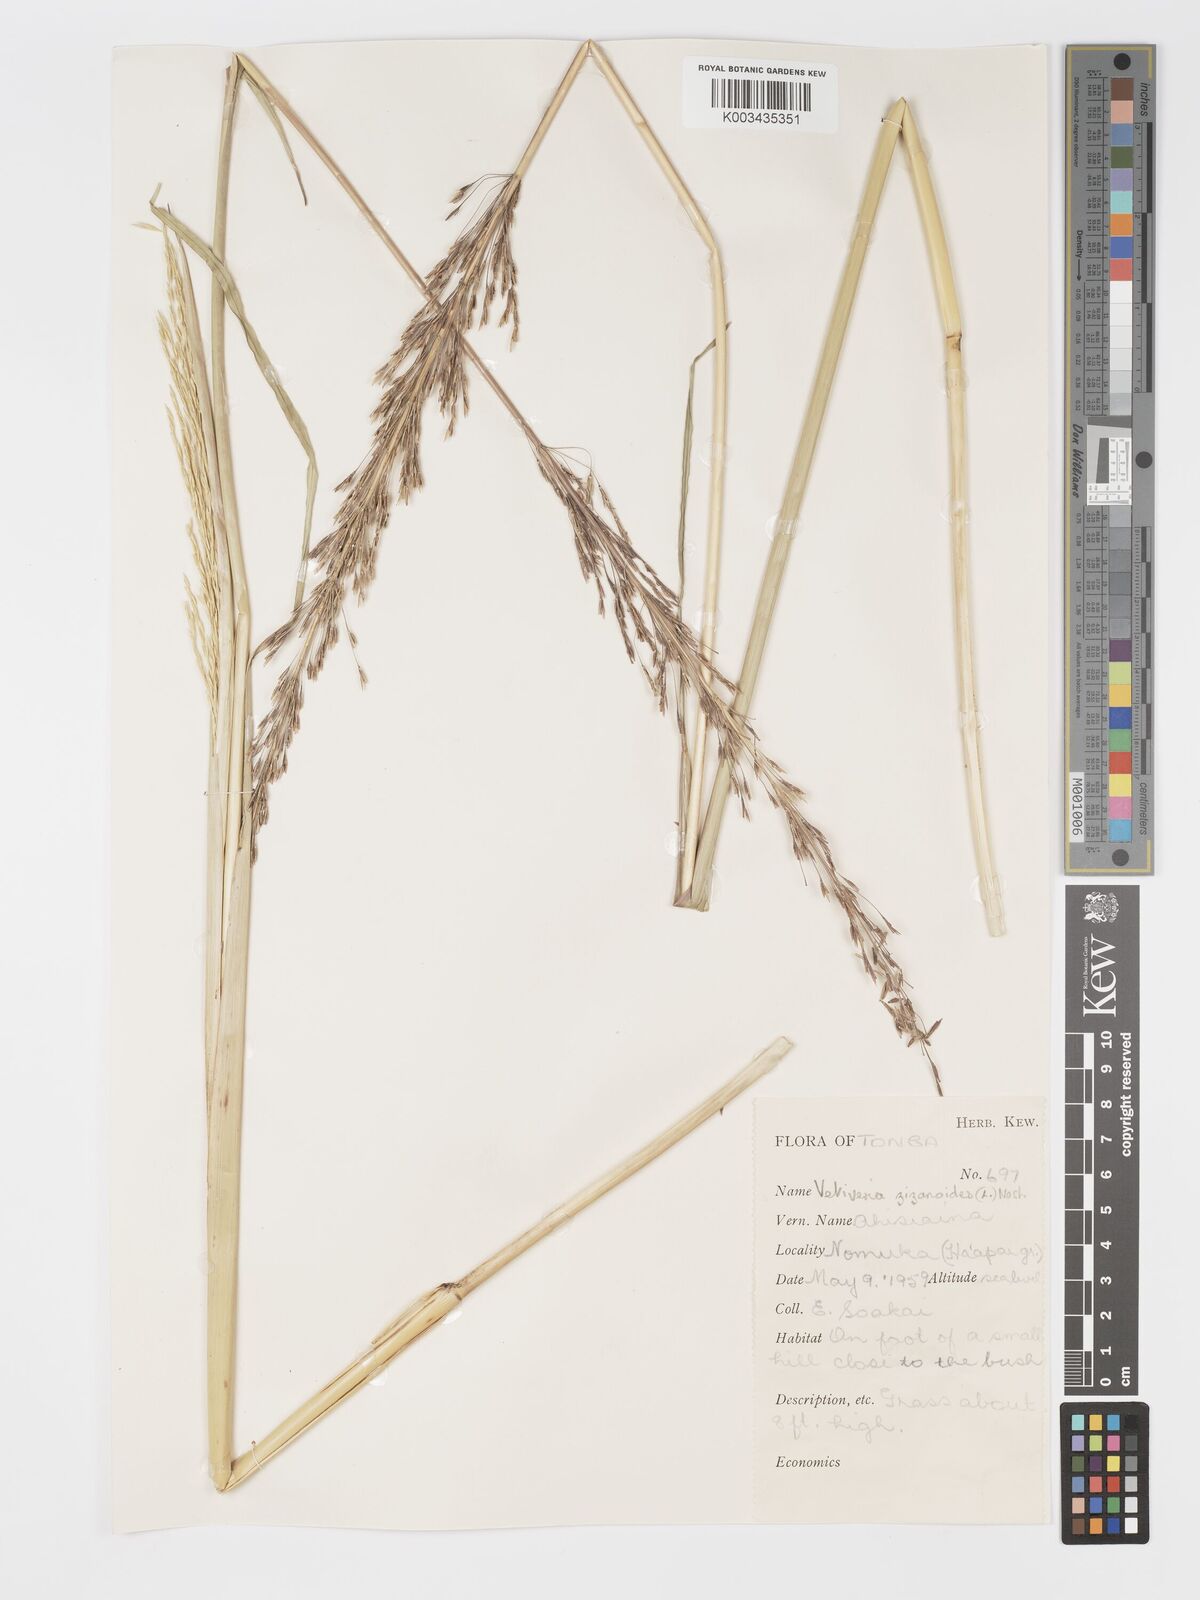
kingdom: Plantae
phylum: Tracheophyta
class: Liliopsida
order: Poales
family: Poaceae
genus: Chrysopogon
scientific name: Chrysopogon zizanioides
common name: False beardgrass
